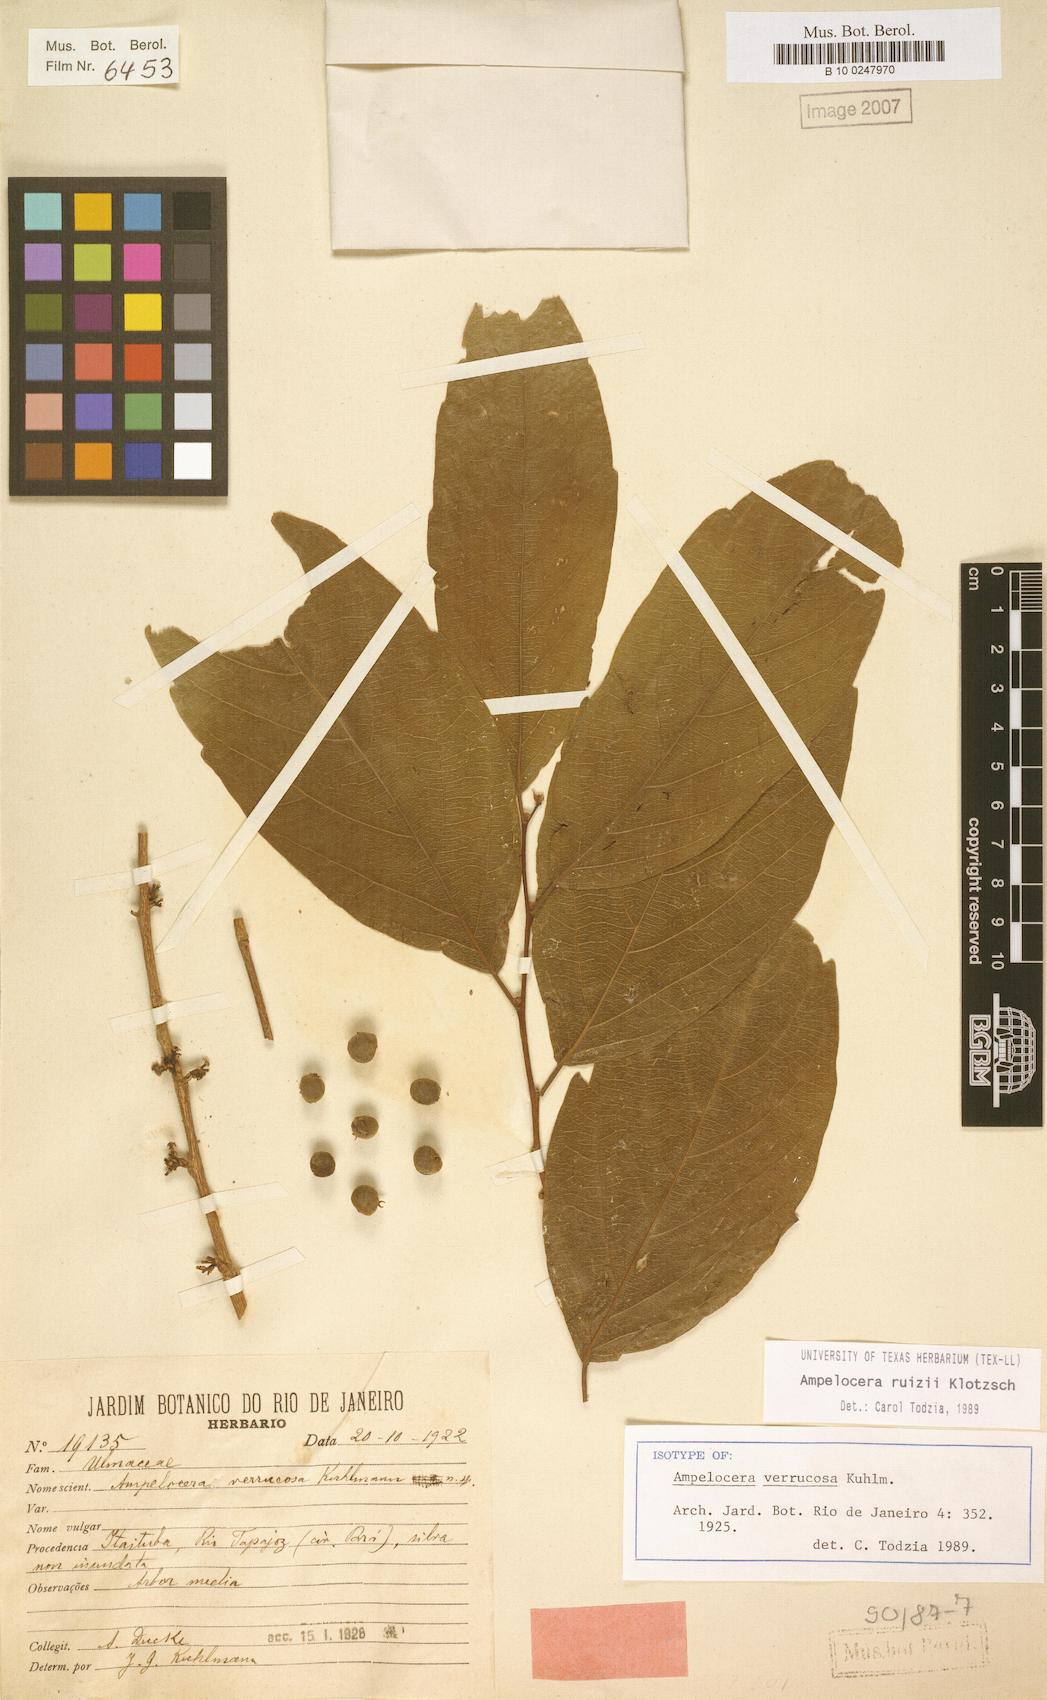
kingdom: Plantae
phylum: Tracheophyta
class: Magnoliopsida
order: Rosales
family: Cannabaceae
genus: Ampelocera
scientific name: Ampelocera ruizii
